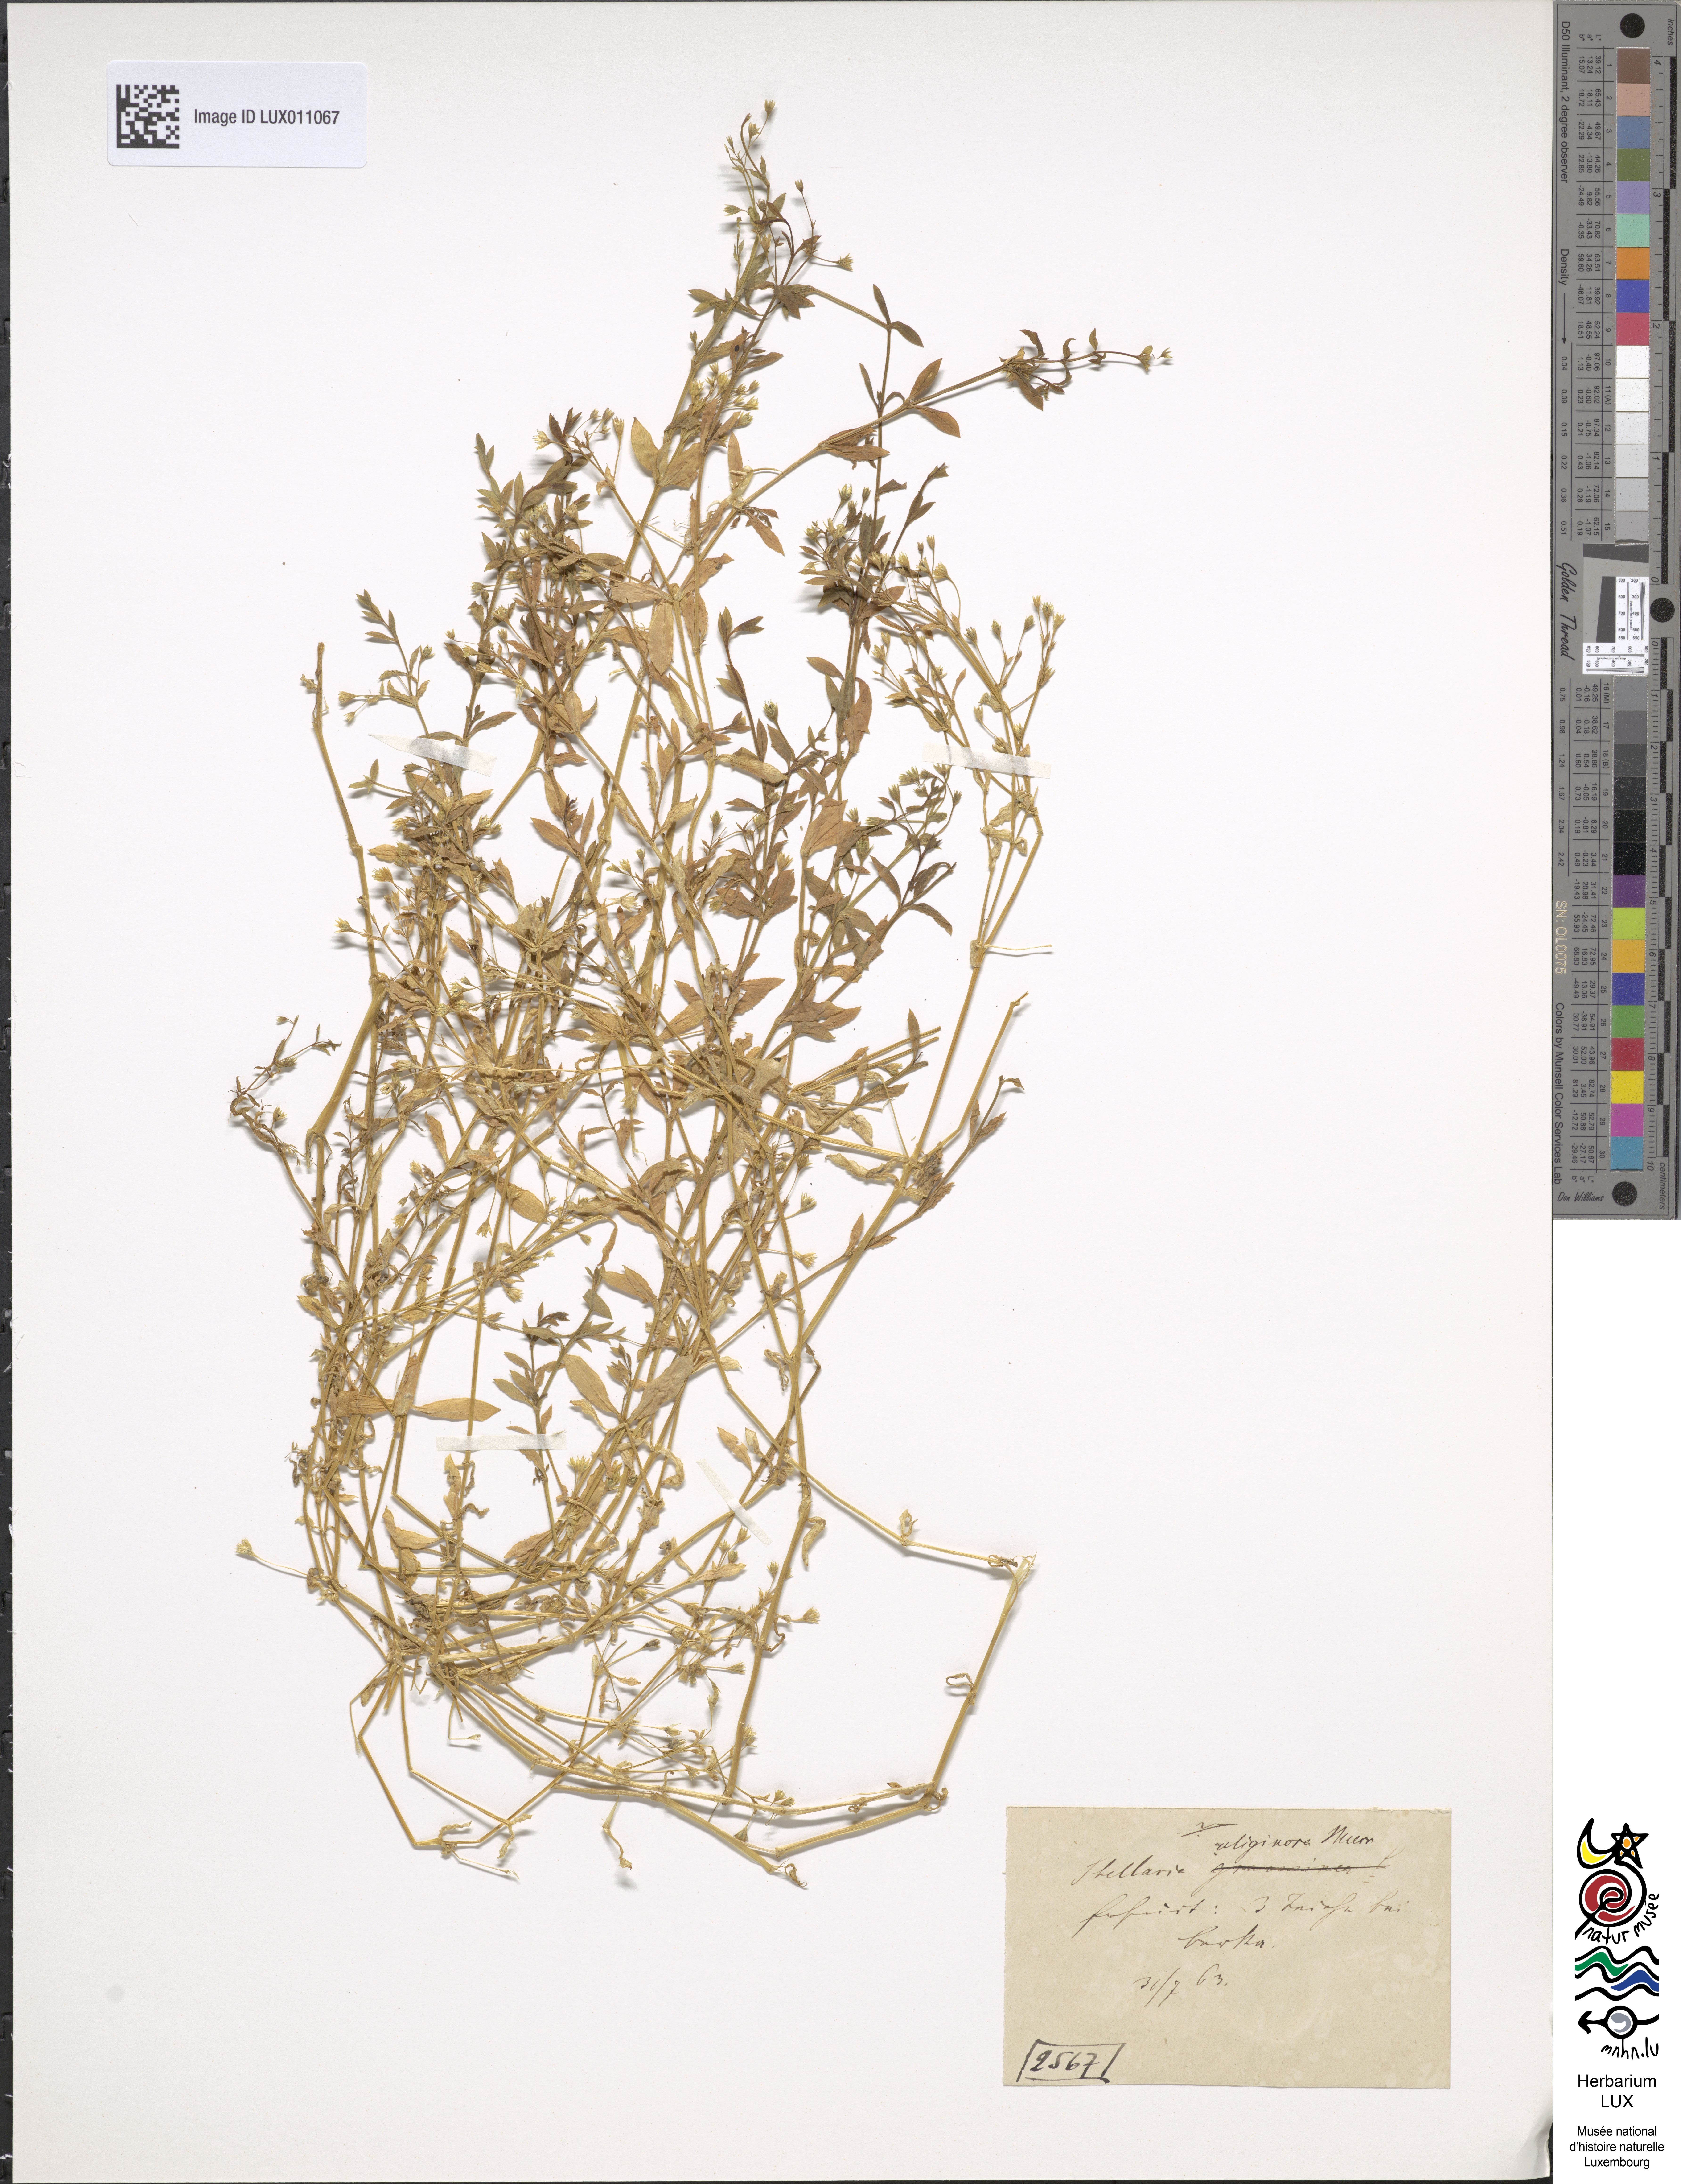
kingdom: Plantae
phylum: Tracheophyta
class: Magnoliopsida
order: Caryophyllales
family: Caryophyllaceae
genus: Stellaria
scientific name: Stellaria alsine
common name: Bog stitchwort
